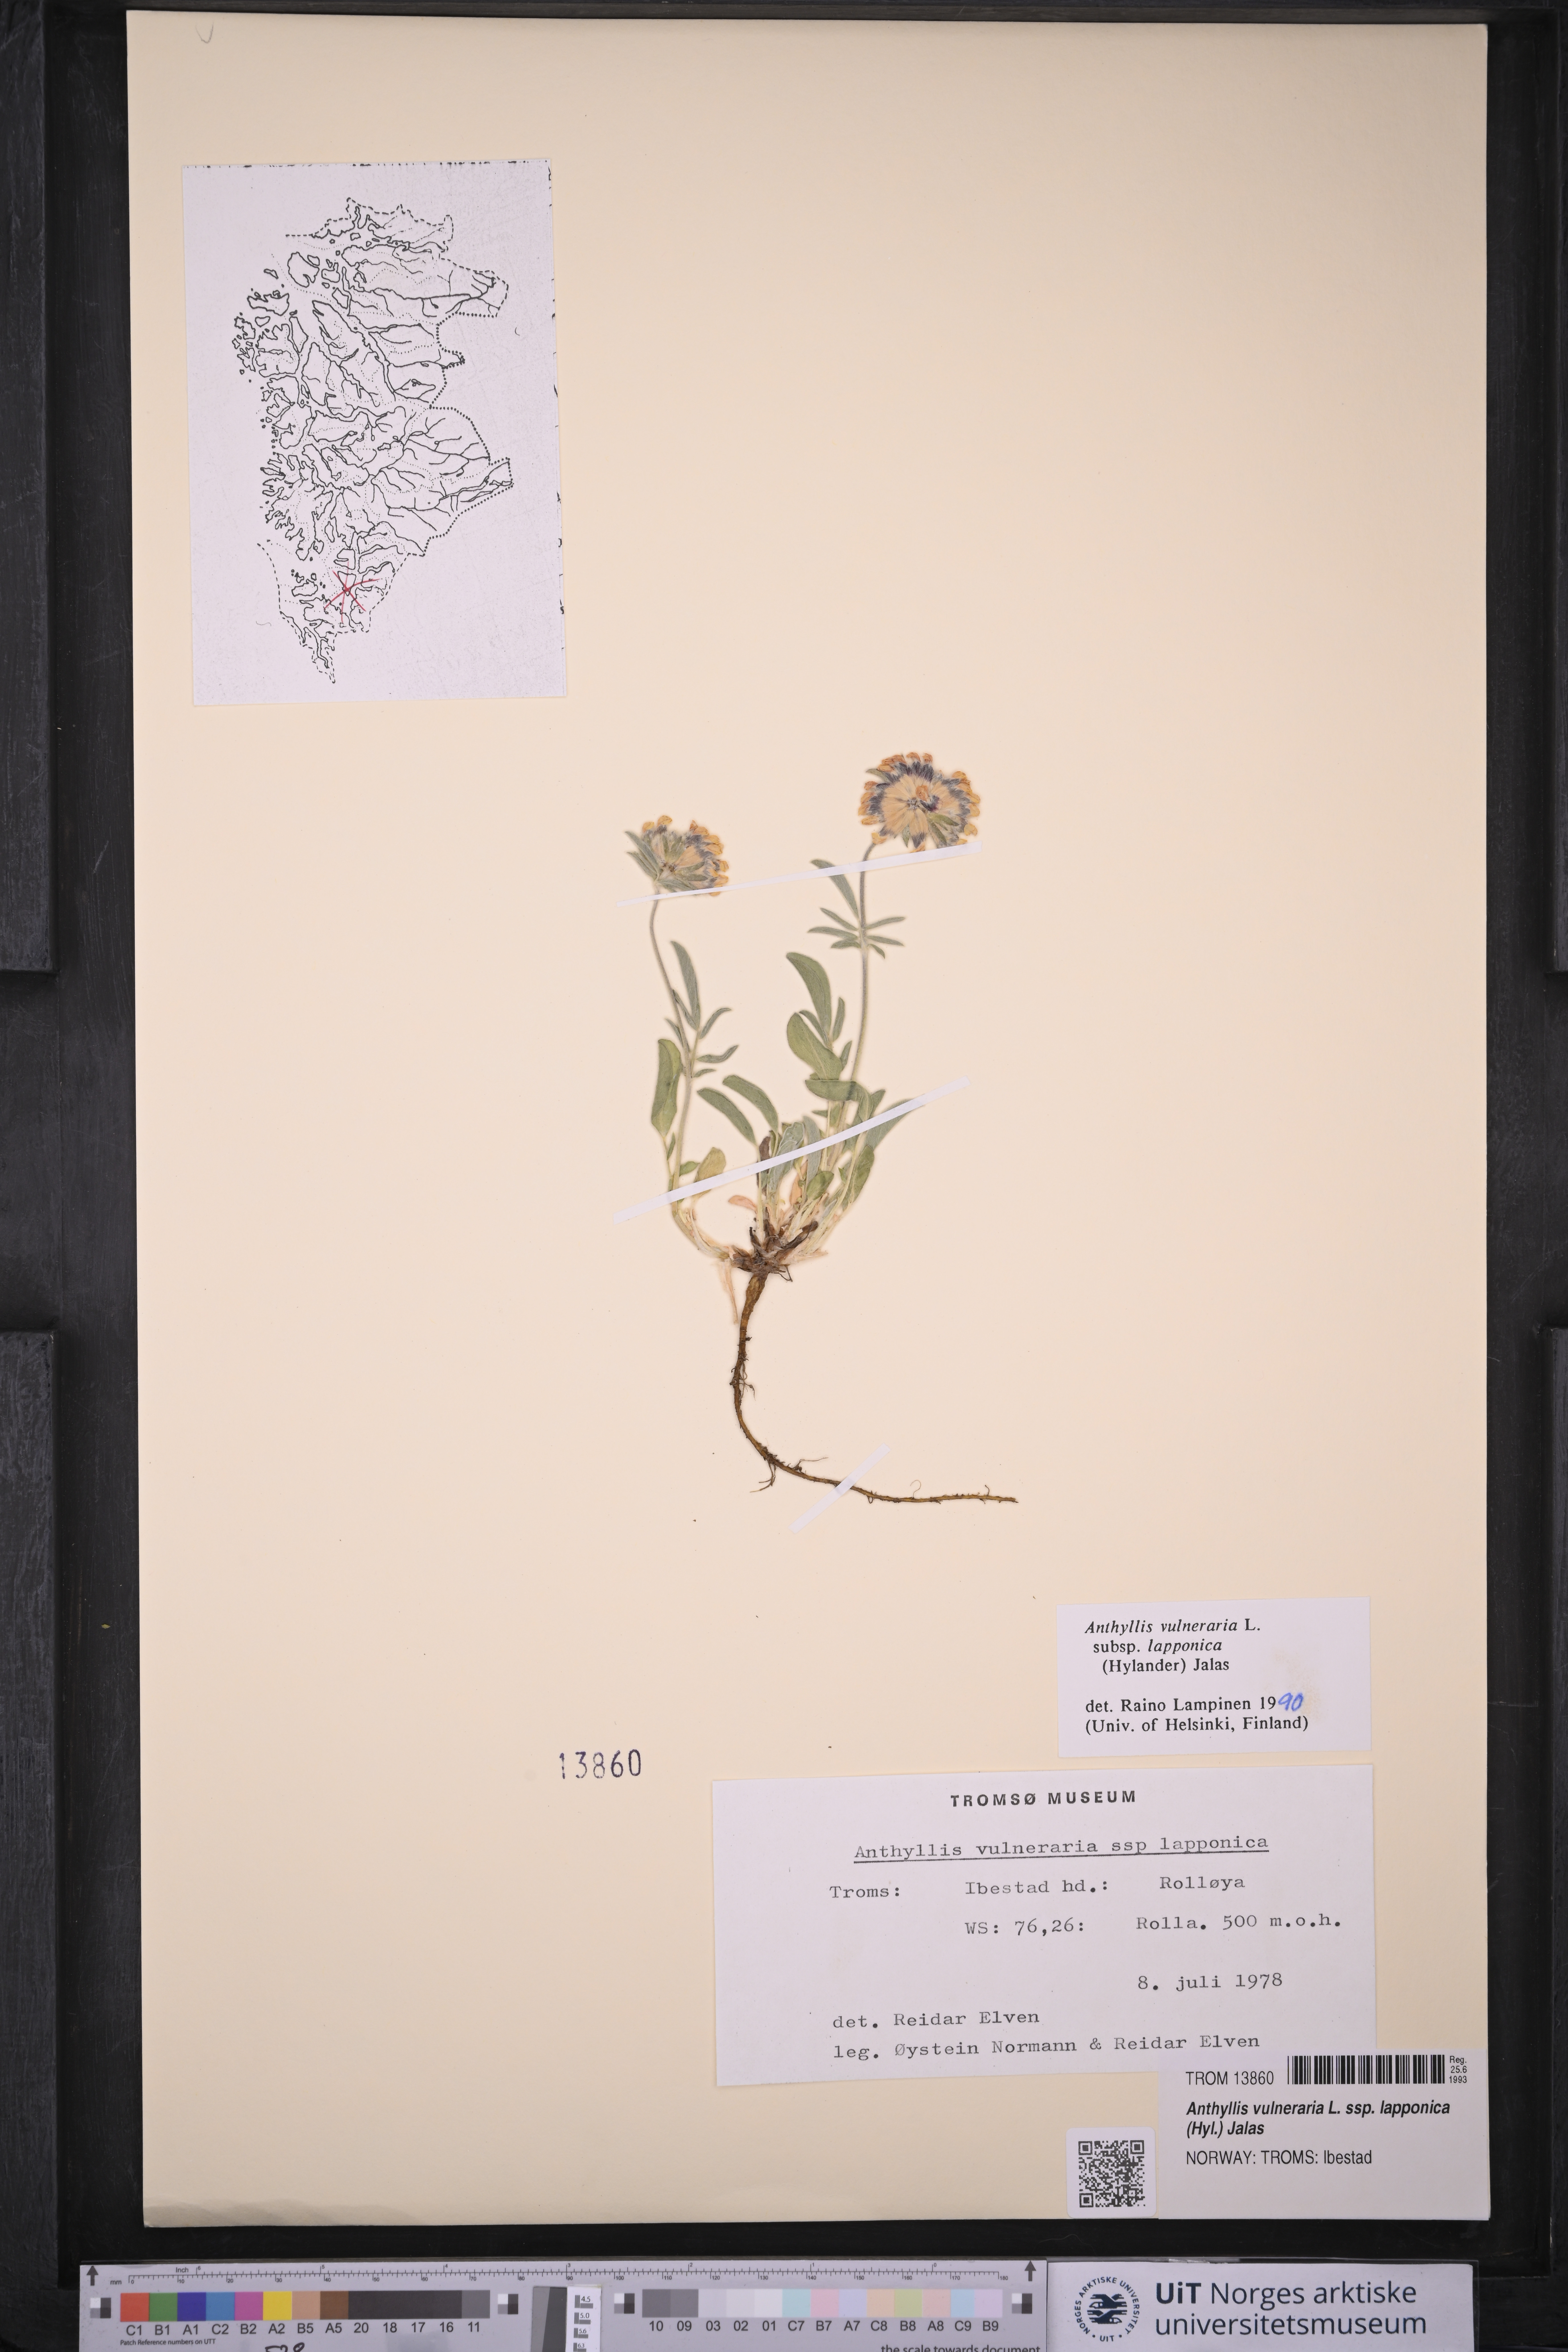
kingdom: Plantae
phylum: Tracheophyta
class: Magnoliopsida
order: Fabales
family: Fabaceae
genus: Anthyllis
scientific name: Anthyllis vulneraria
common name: Kidney vetch
